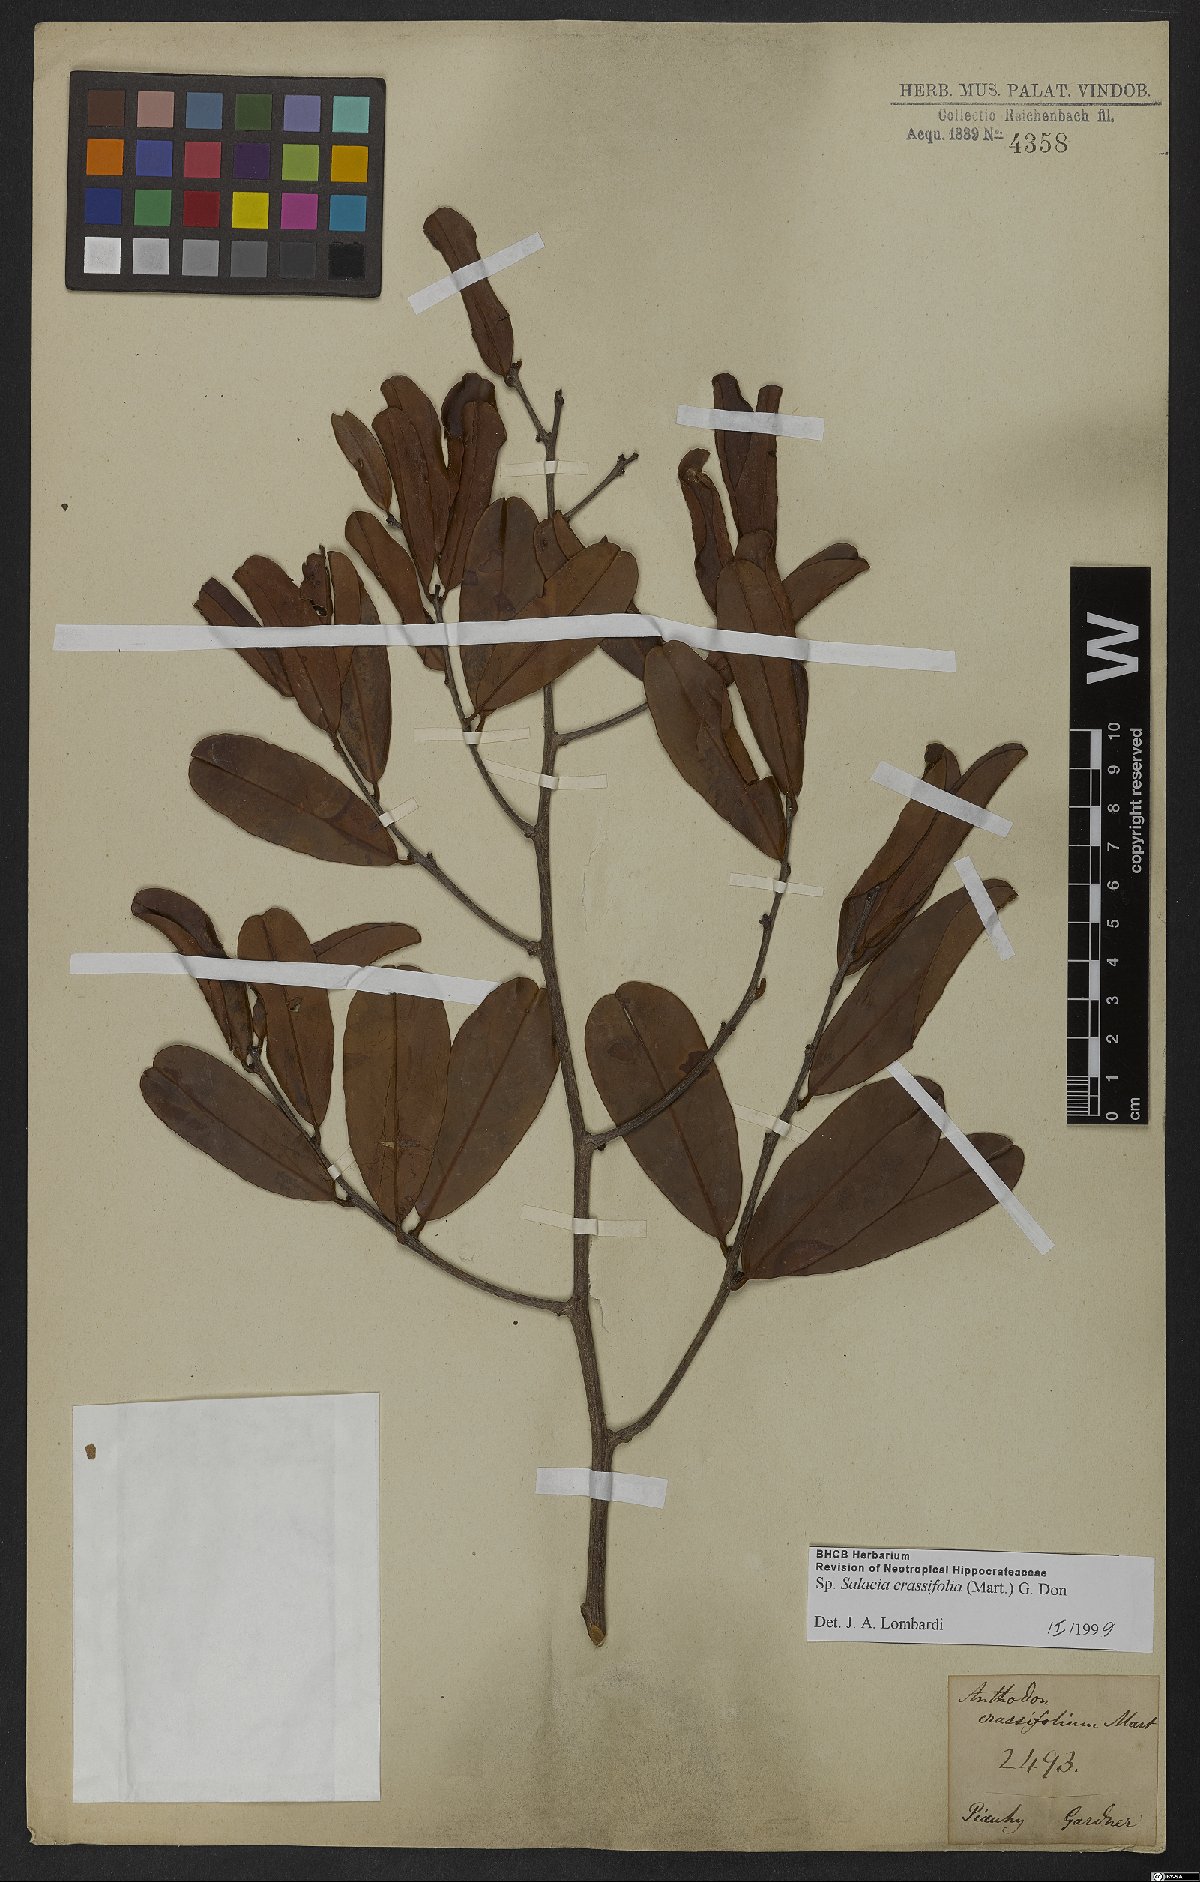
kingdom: Plantae
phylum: Tracheophyta
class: Magnoliopsida
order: Celastrales
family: Celastraceae
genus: Salacia
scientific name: Salacia crassifolia
